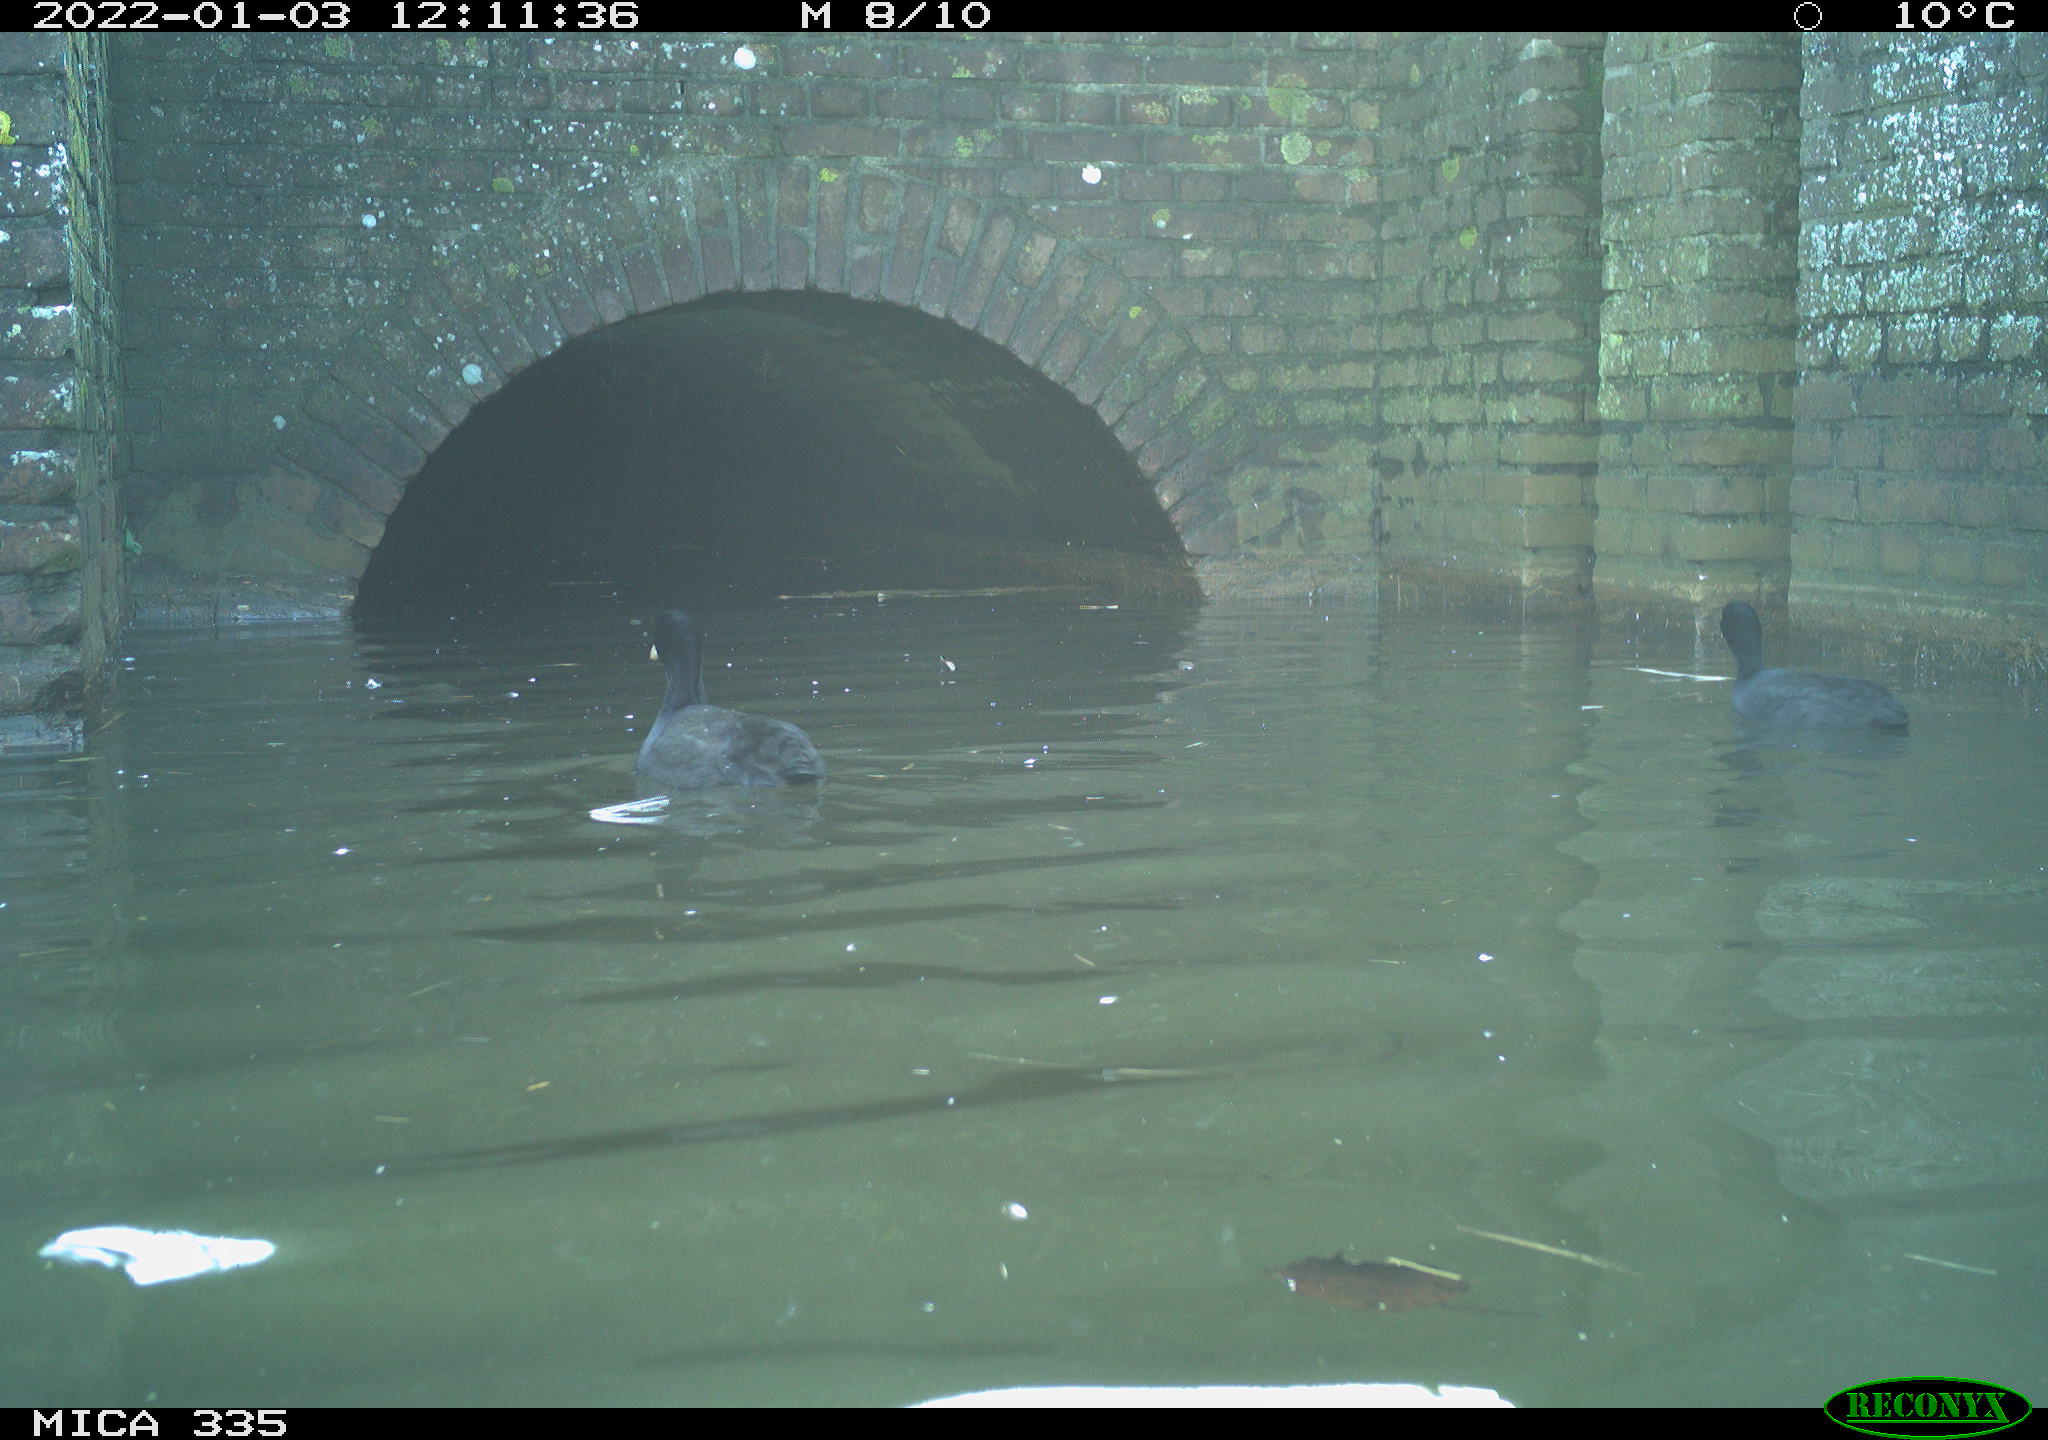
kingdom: Animalia
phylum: Chordata
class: Aves
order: Gruiformes
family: Rallidae
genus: Fulica
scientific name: Fulica atra
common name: Eurasian coot
